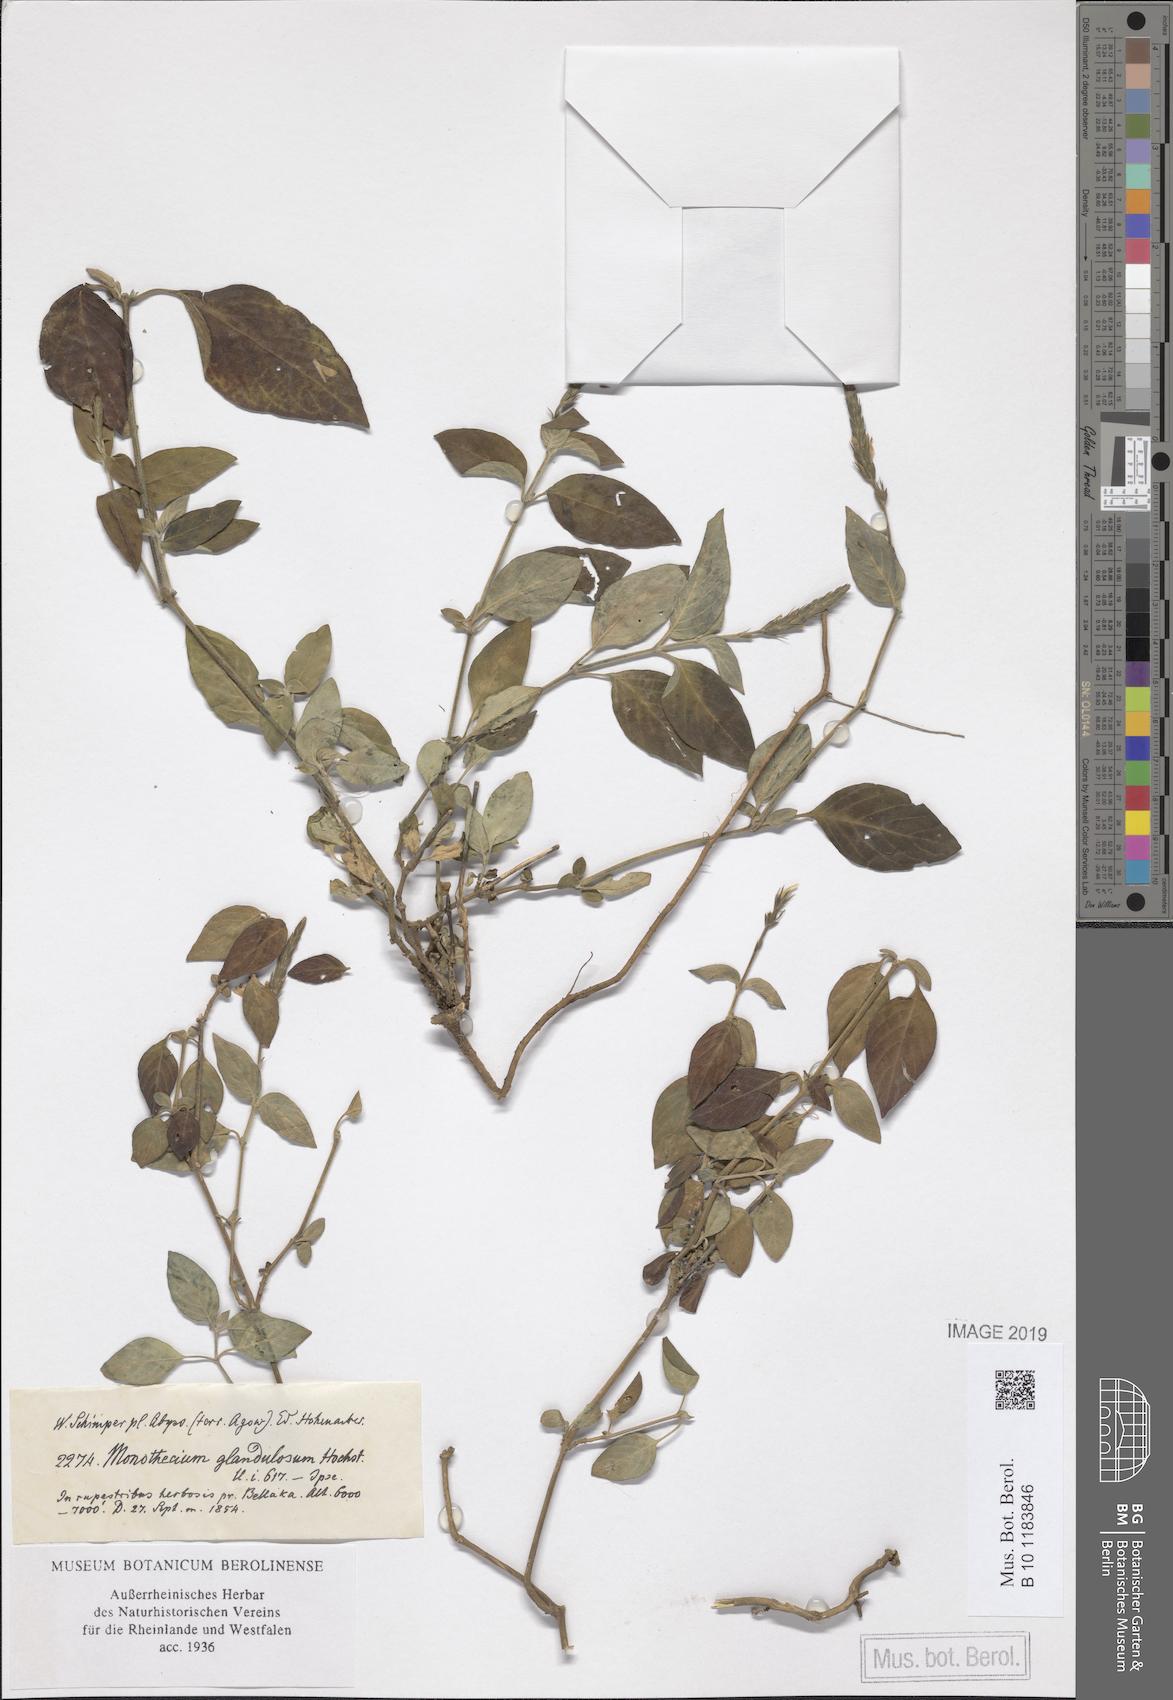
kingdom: Plantae
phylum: Tracheophyta
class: Magnoliopsida
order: Lamiales
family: Acanthaceae
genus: Monothecium
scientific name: Monothecium glandulosum
